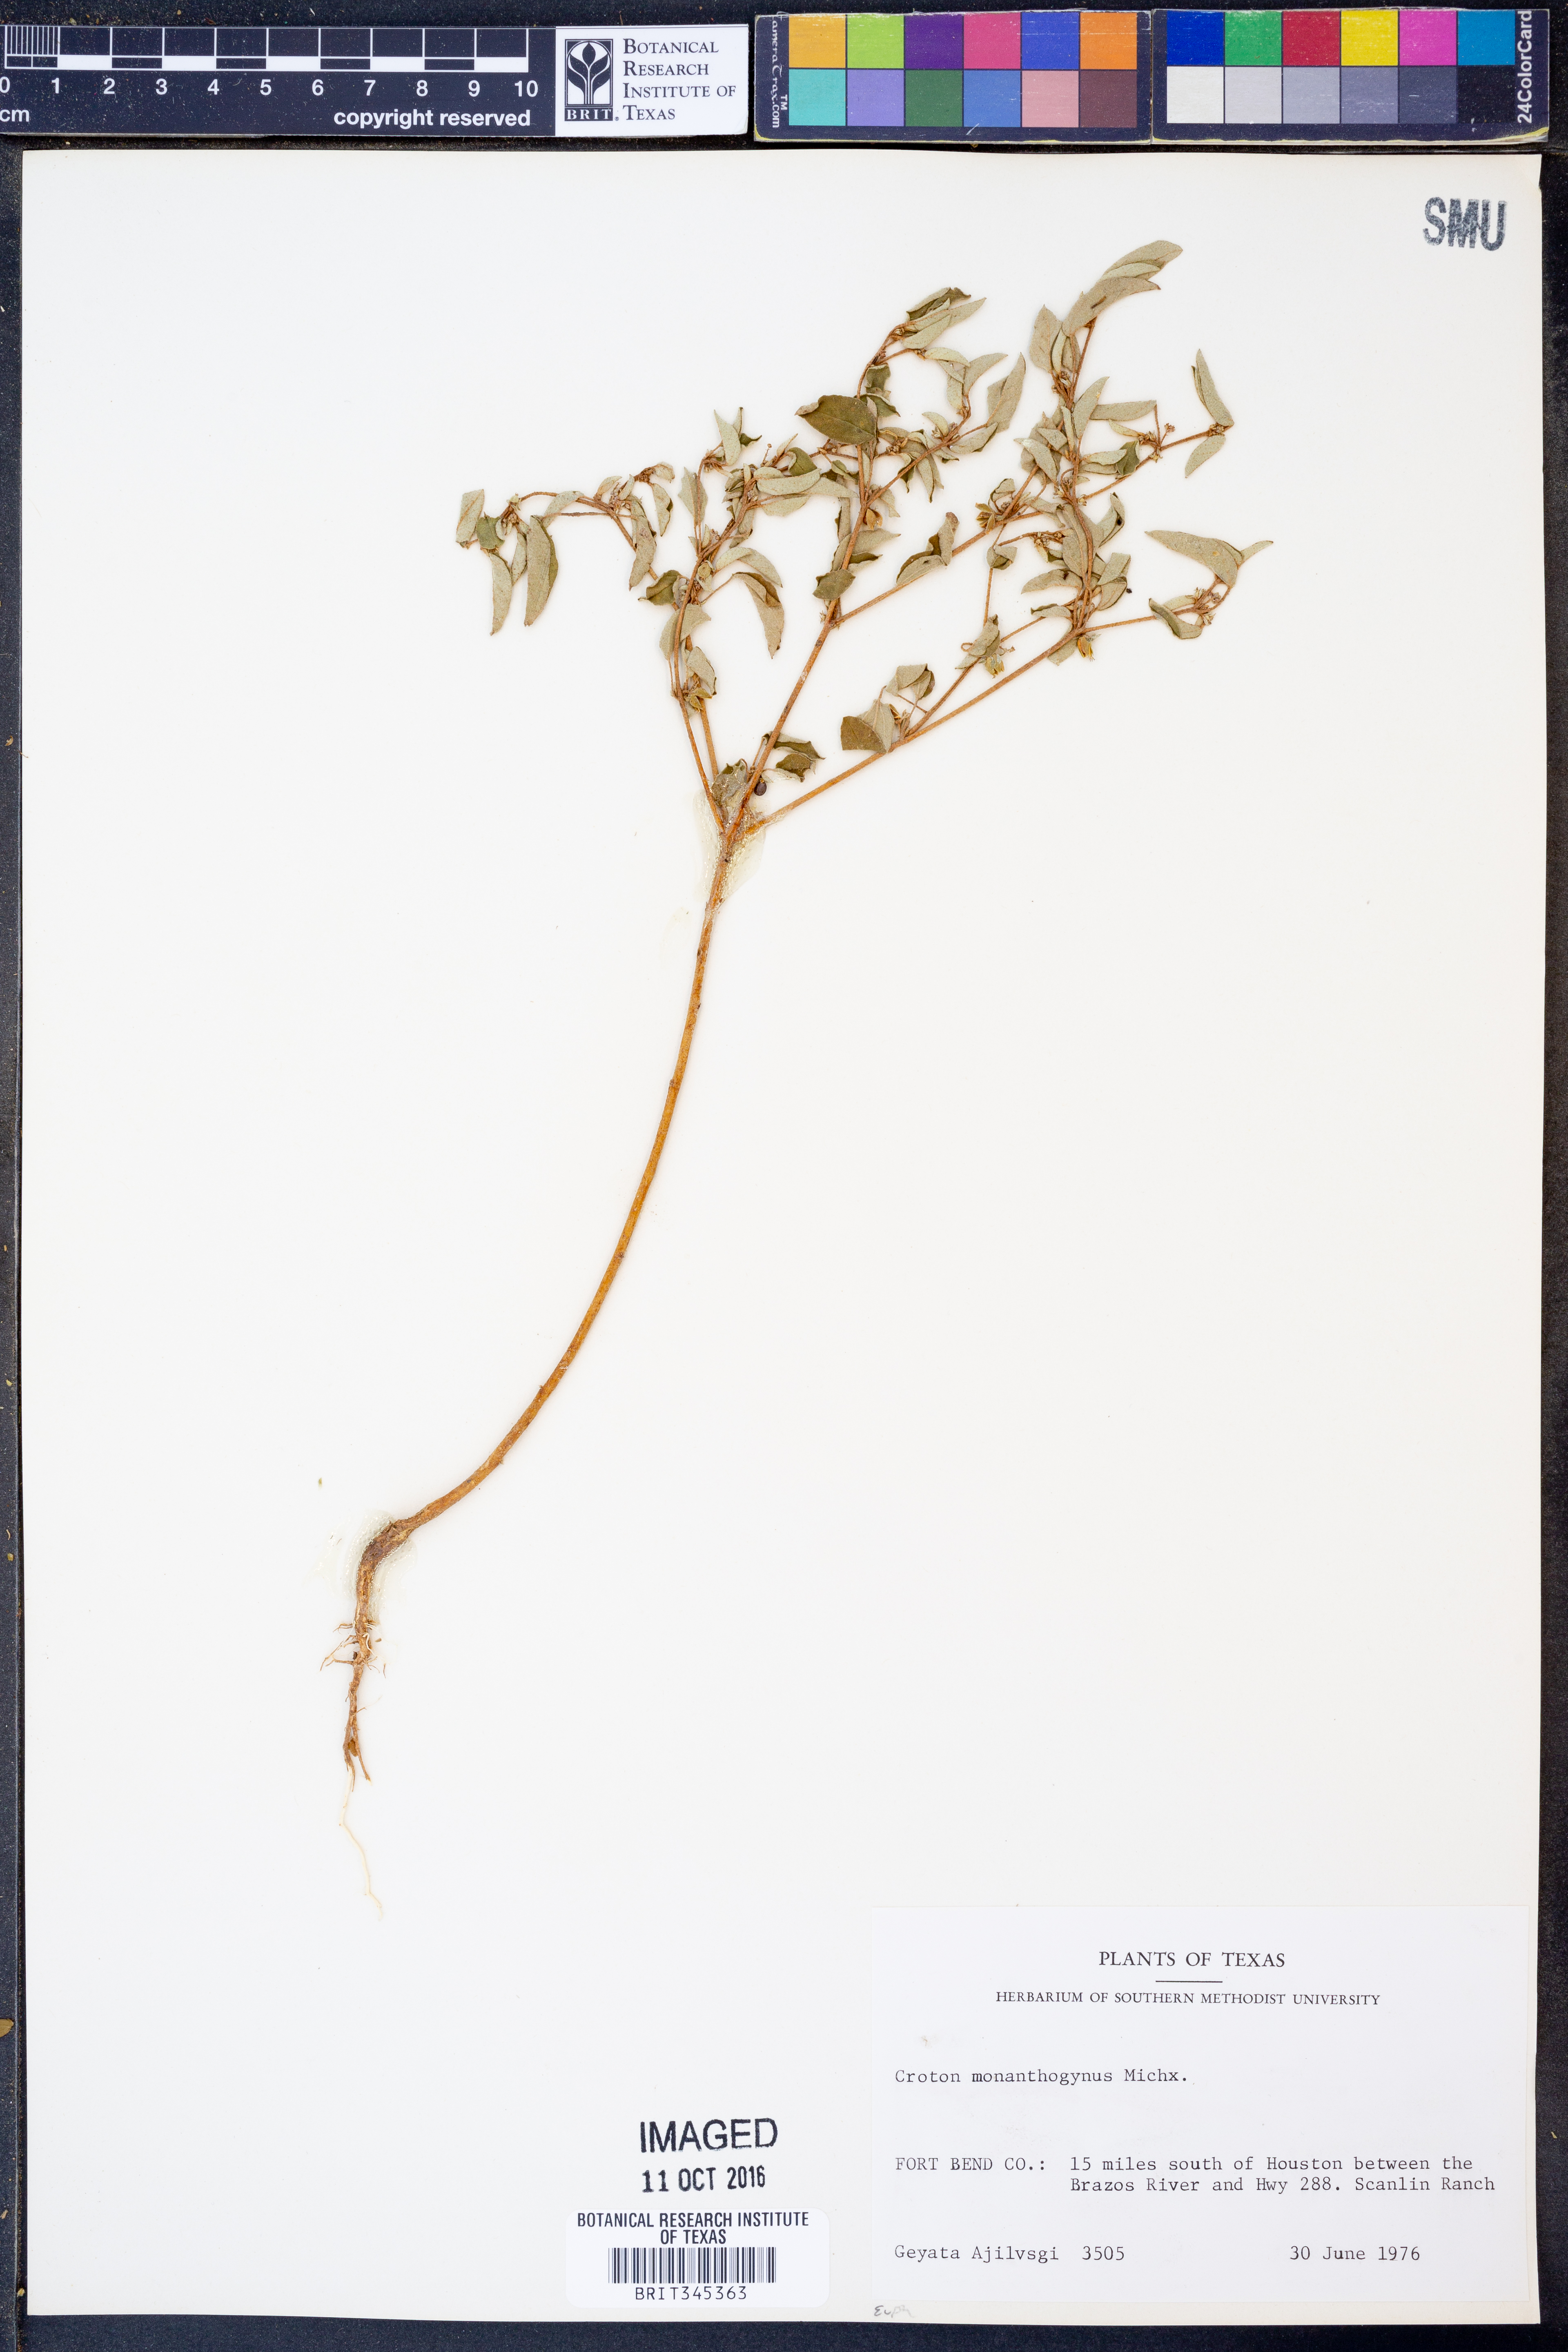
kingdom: Plantae
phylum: Tracheophyta
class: Magnoliopsida
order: Malpighiales
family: Euphorbiaceae
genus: Croton
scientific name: Croton monanthogynus
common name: One-seed croton
